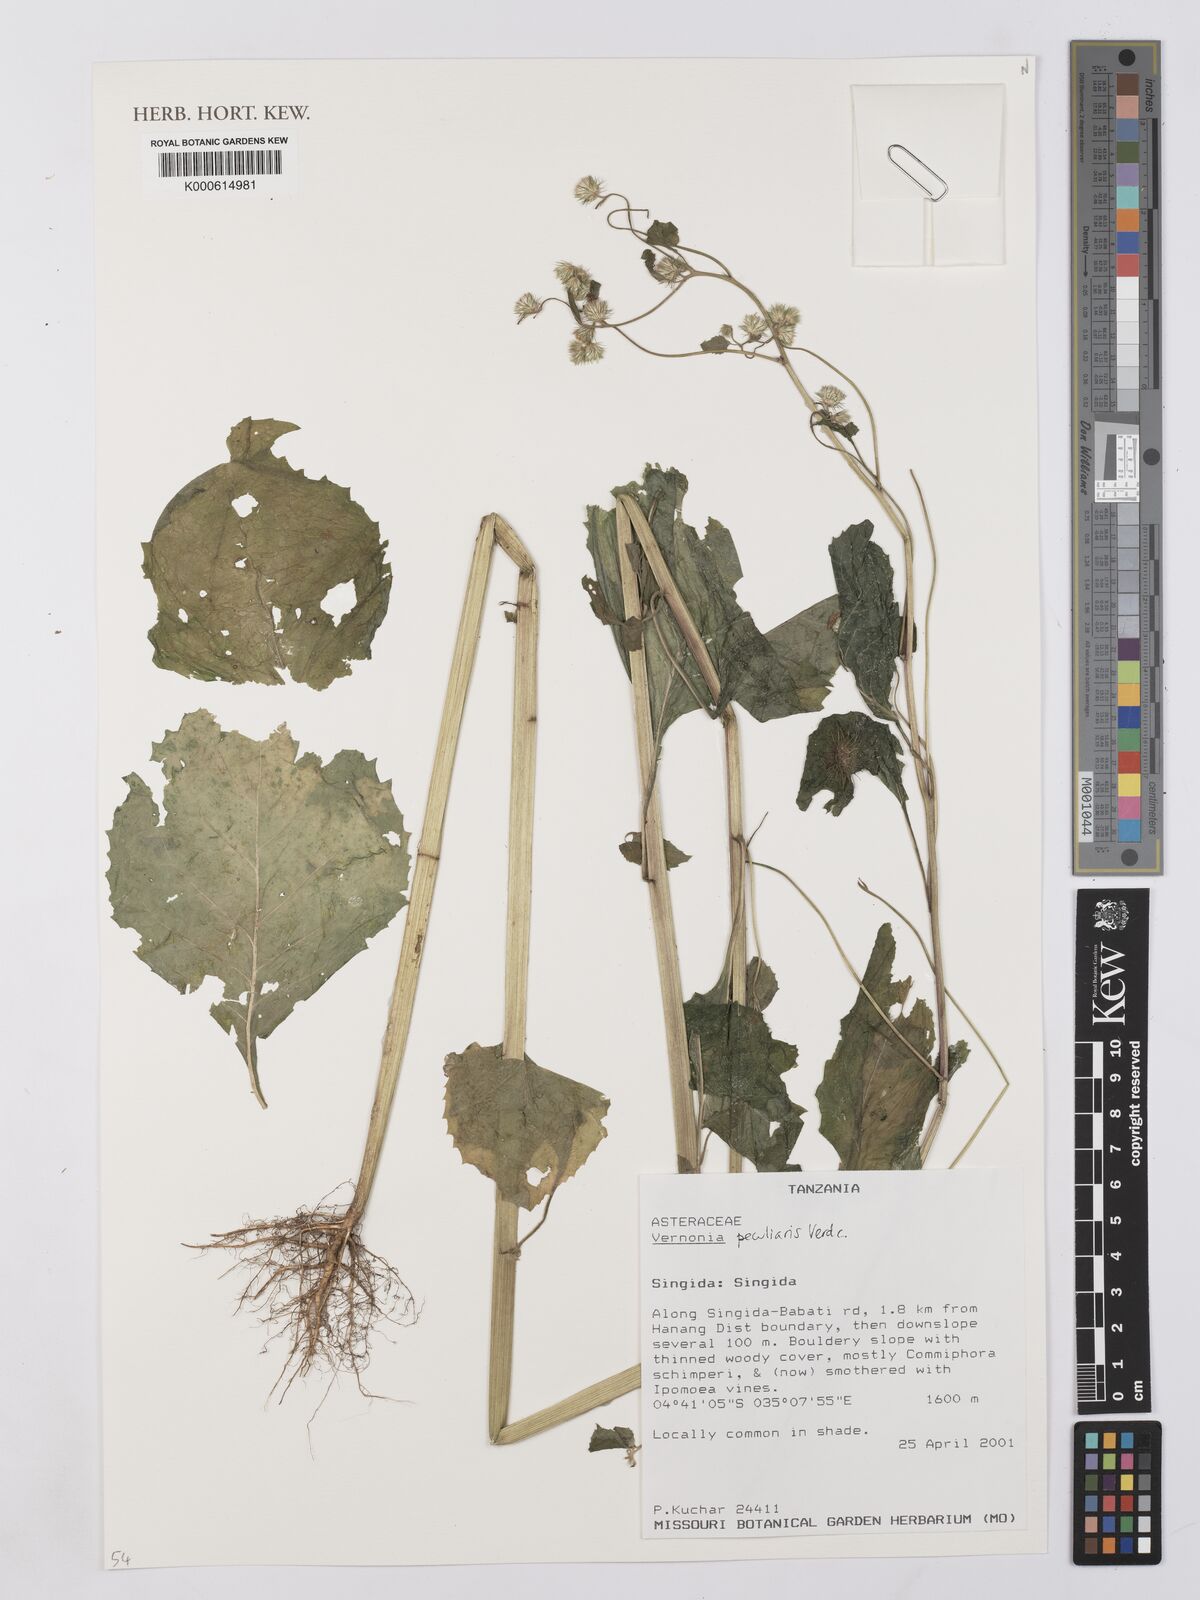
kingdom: Plantae
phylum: Tracheophyta
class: Magnoliopsida
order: Asterales
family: Asteraceae
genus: Manyonia
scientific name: Manyonia peculiaris
